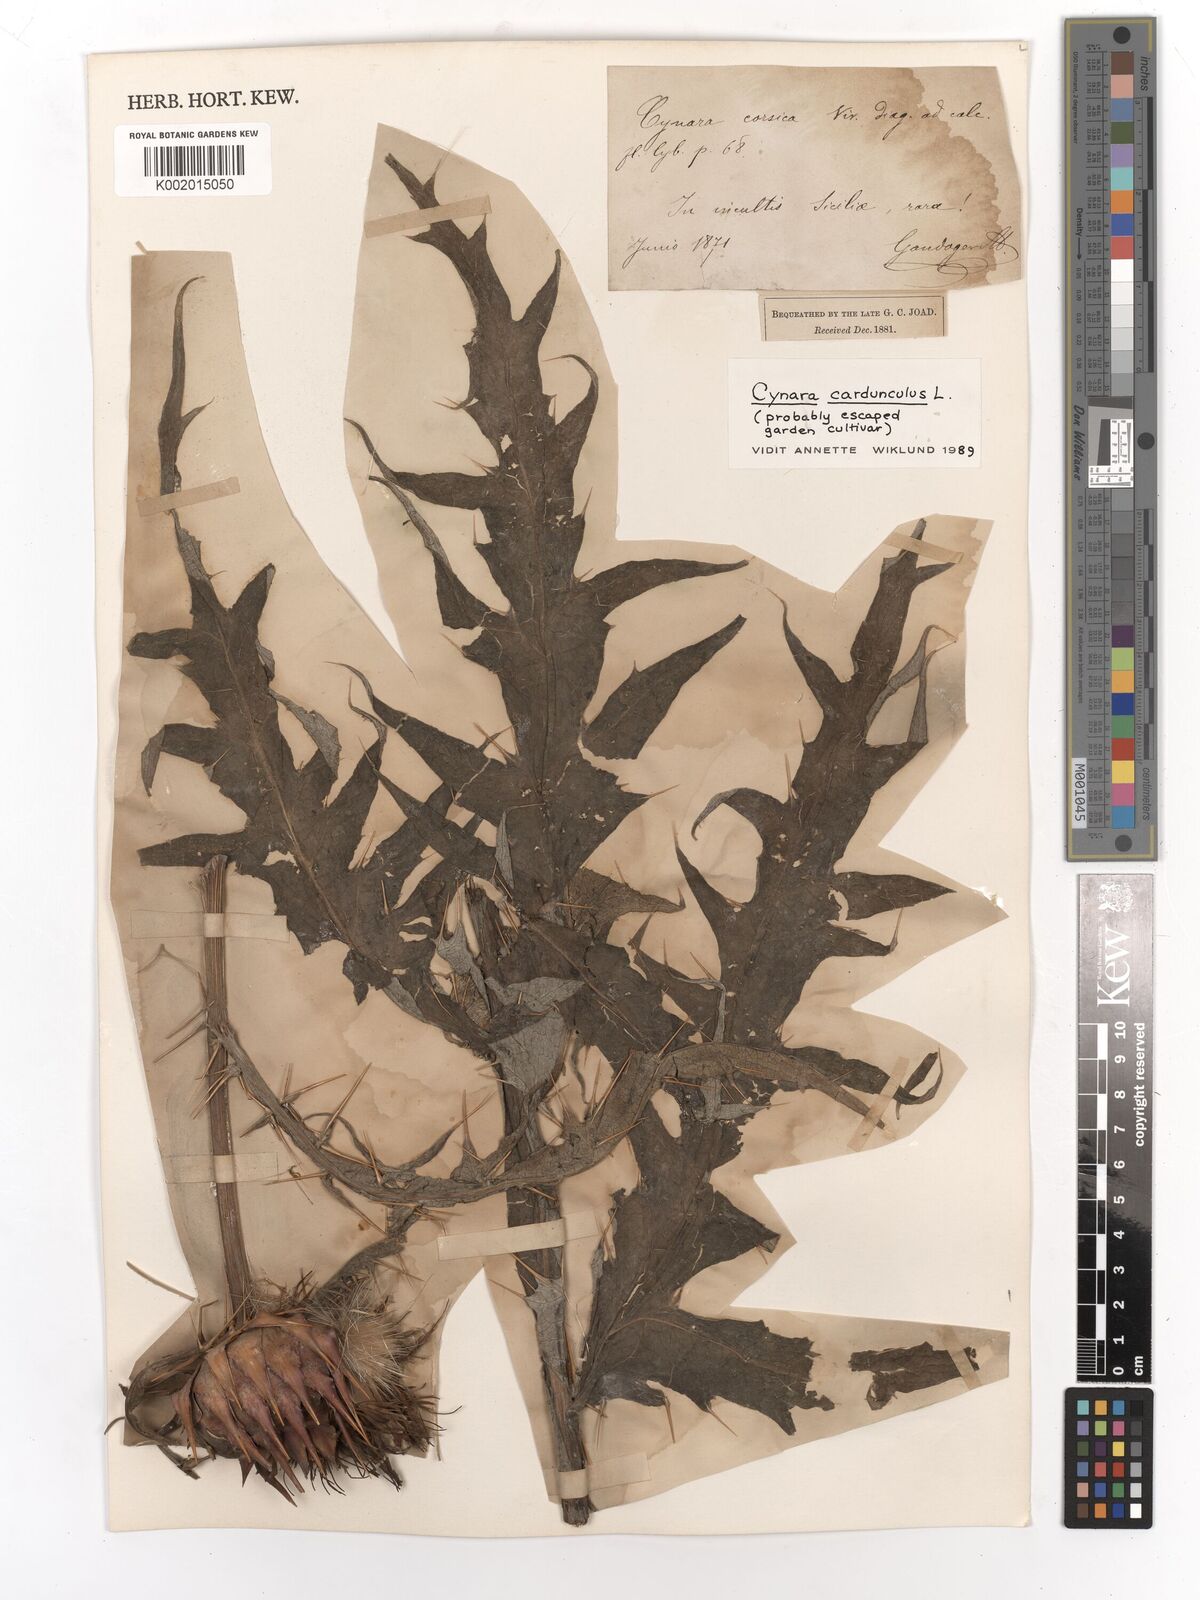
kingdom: Plantae
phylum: Tracheophyta
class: Magnoliopsida
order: Asterales
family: Asteraceae
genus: Cynara
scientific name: Cynara cardunculus
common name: Globe artichoke
